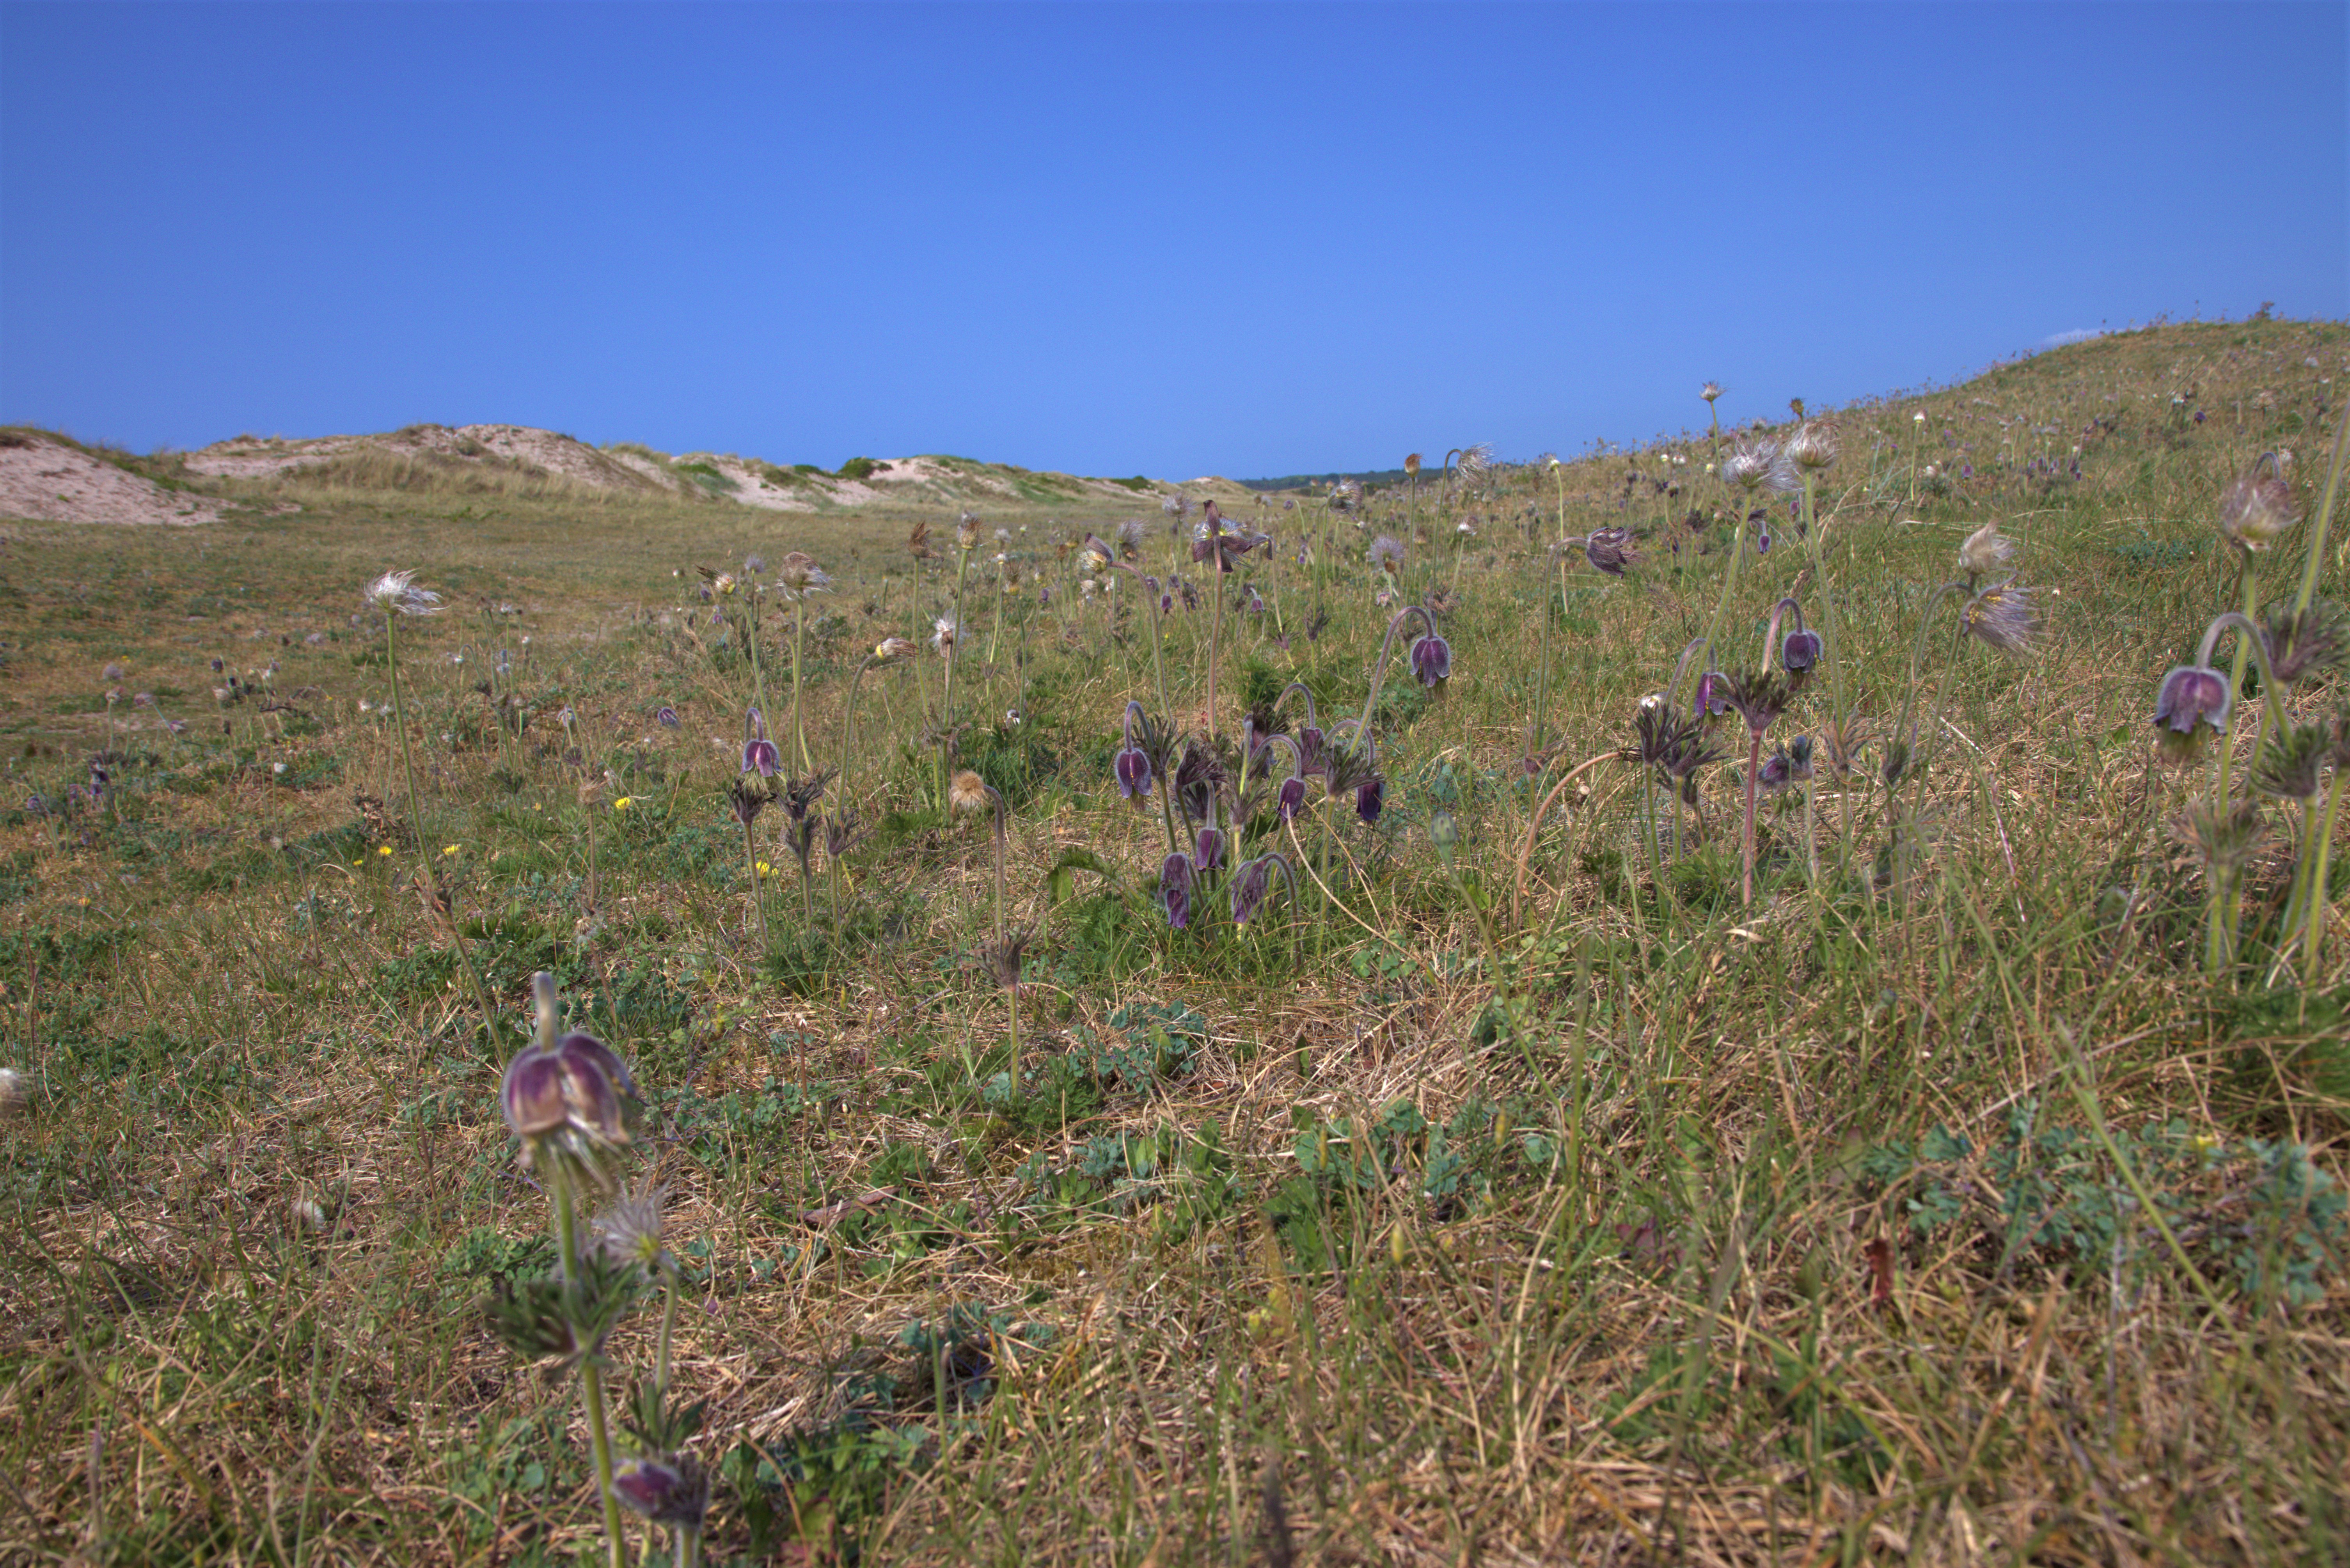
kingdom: Plantae
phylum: Tracheophyta
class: Magnoliopsida
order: Ranunculales
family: Ranunculaceae
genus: Pulsatilla
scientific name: Pulsatilla pratensis
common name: Nikkende kobjælde
